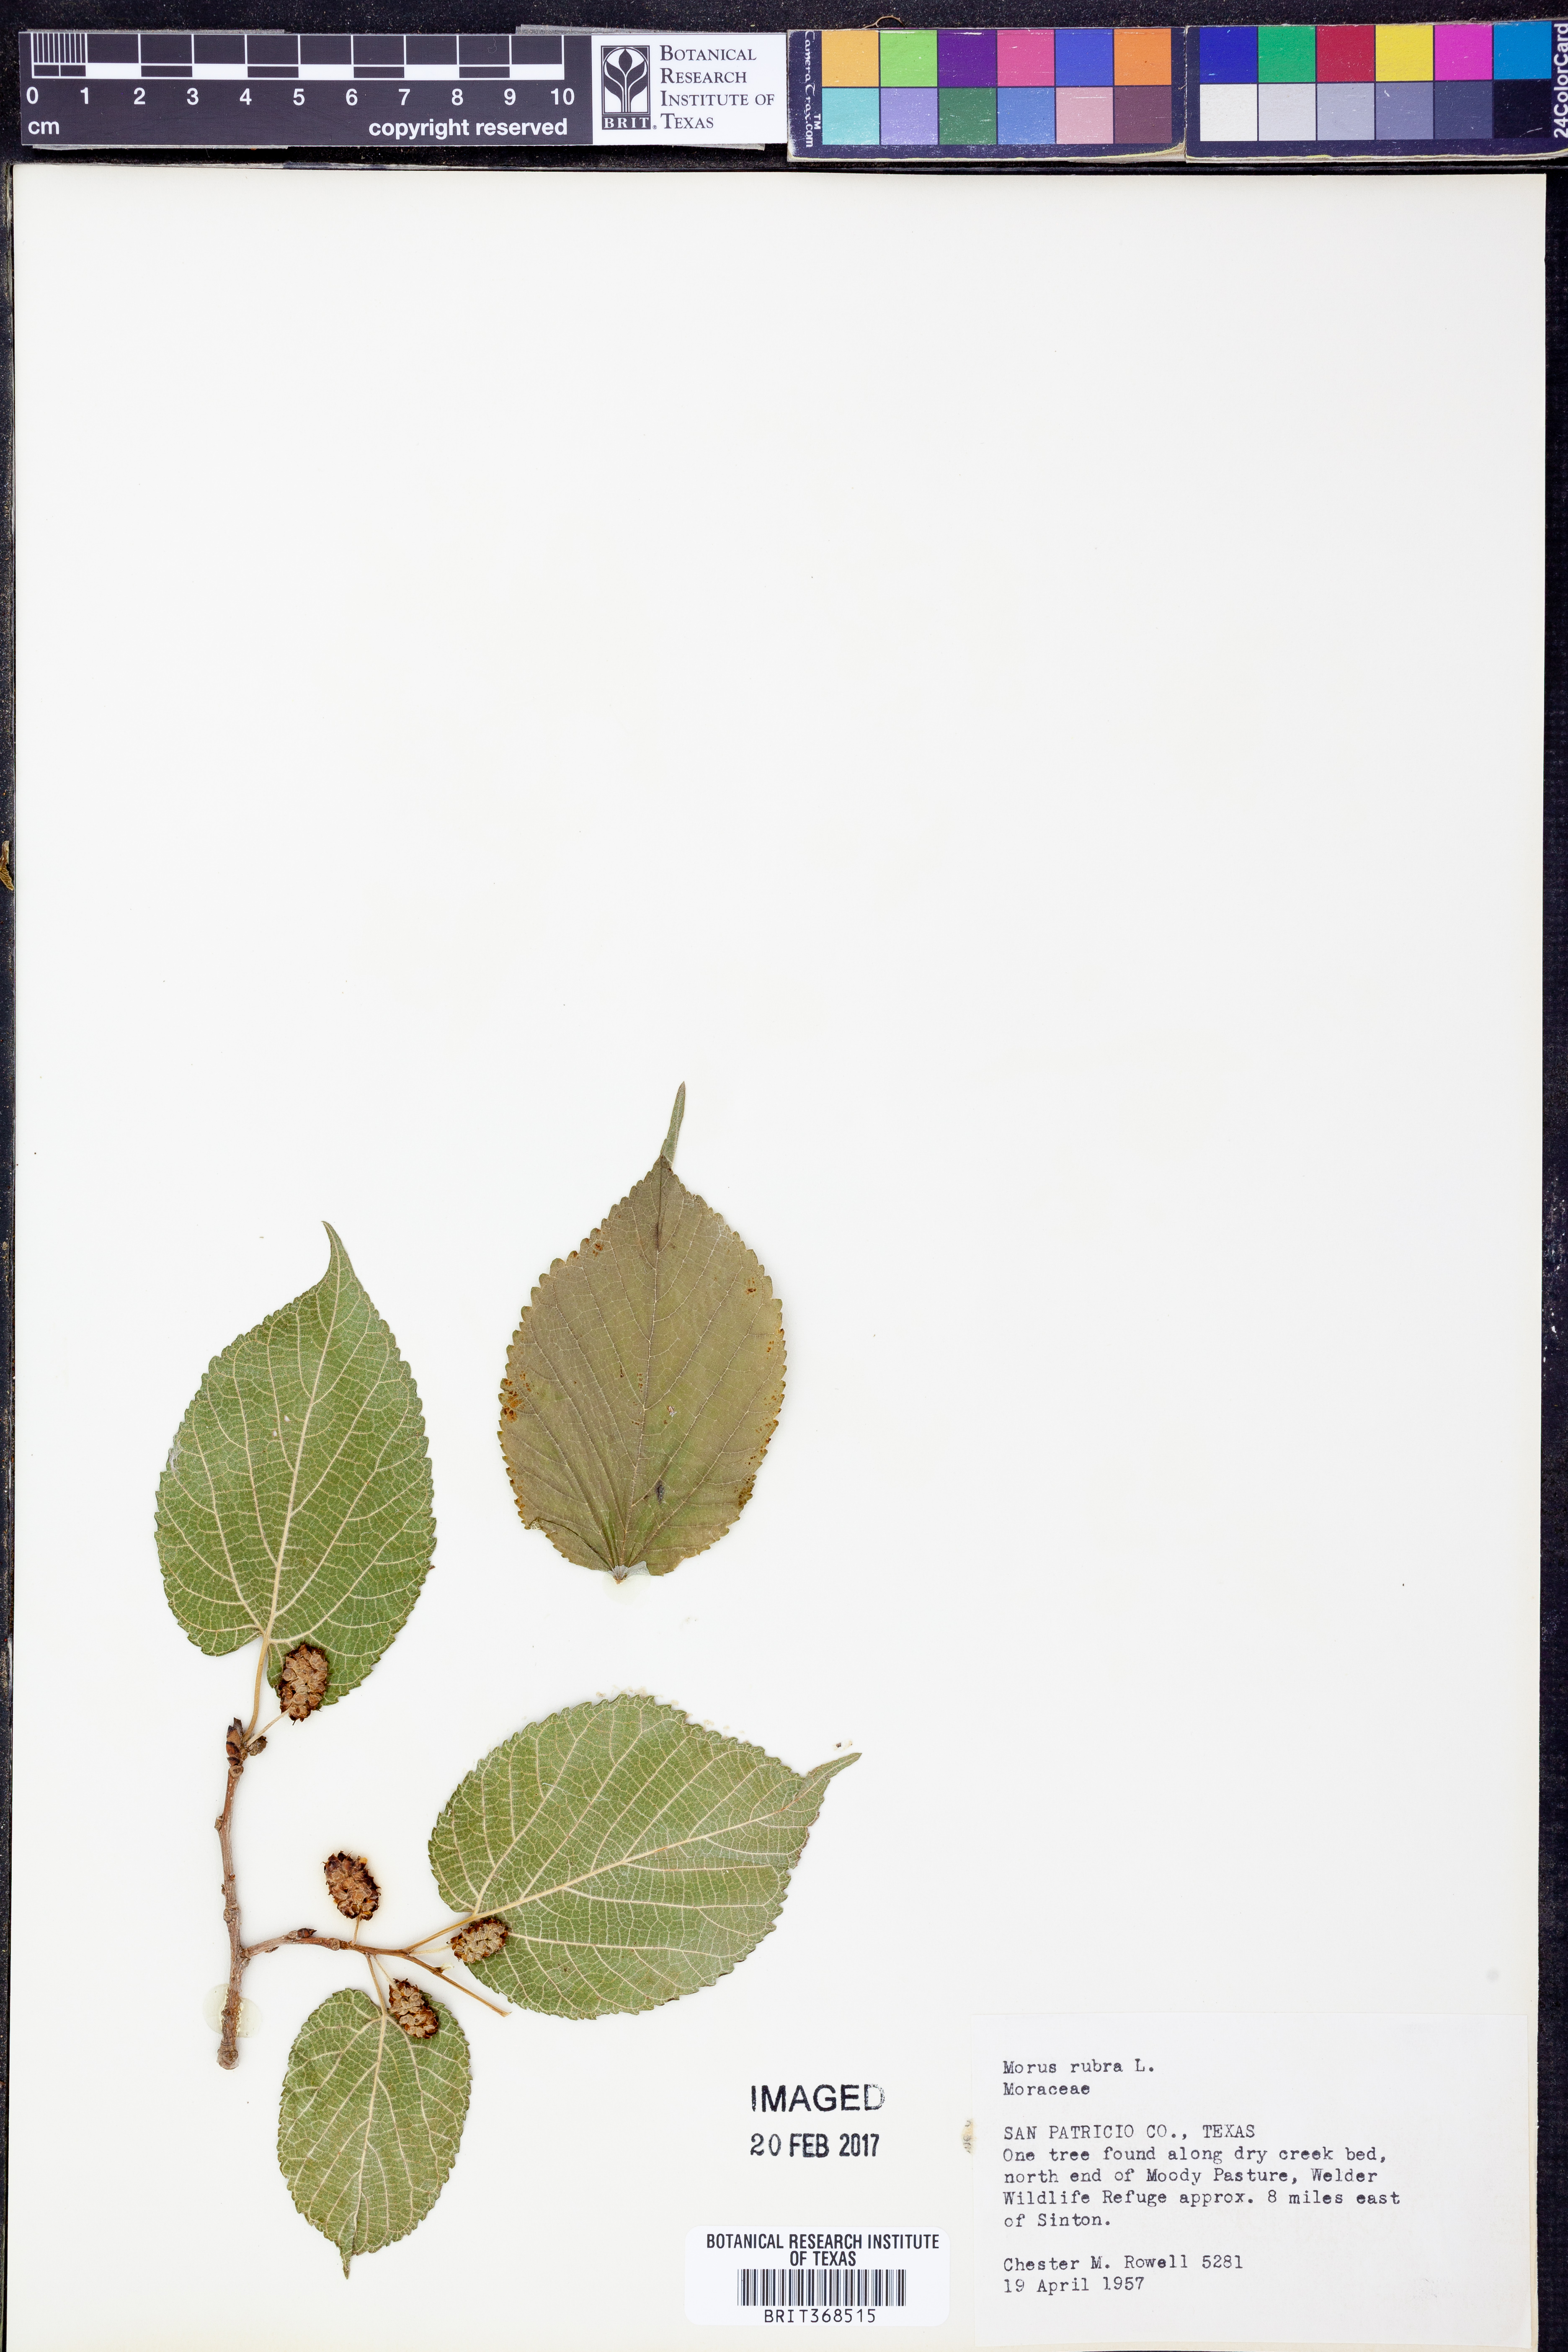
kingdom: Plantae
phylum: Tracheophyta
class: Magnoliopsida
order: Rosales
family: Moraceae
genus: Morus
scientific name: Morus rubra
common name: Red mulberry
